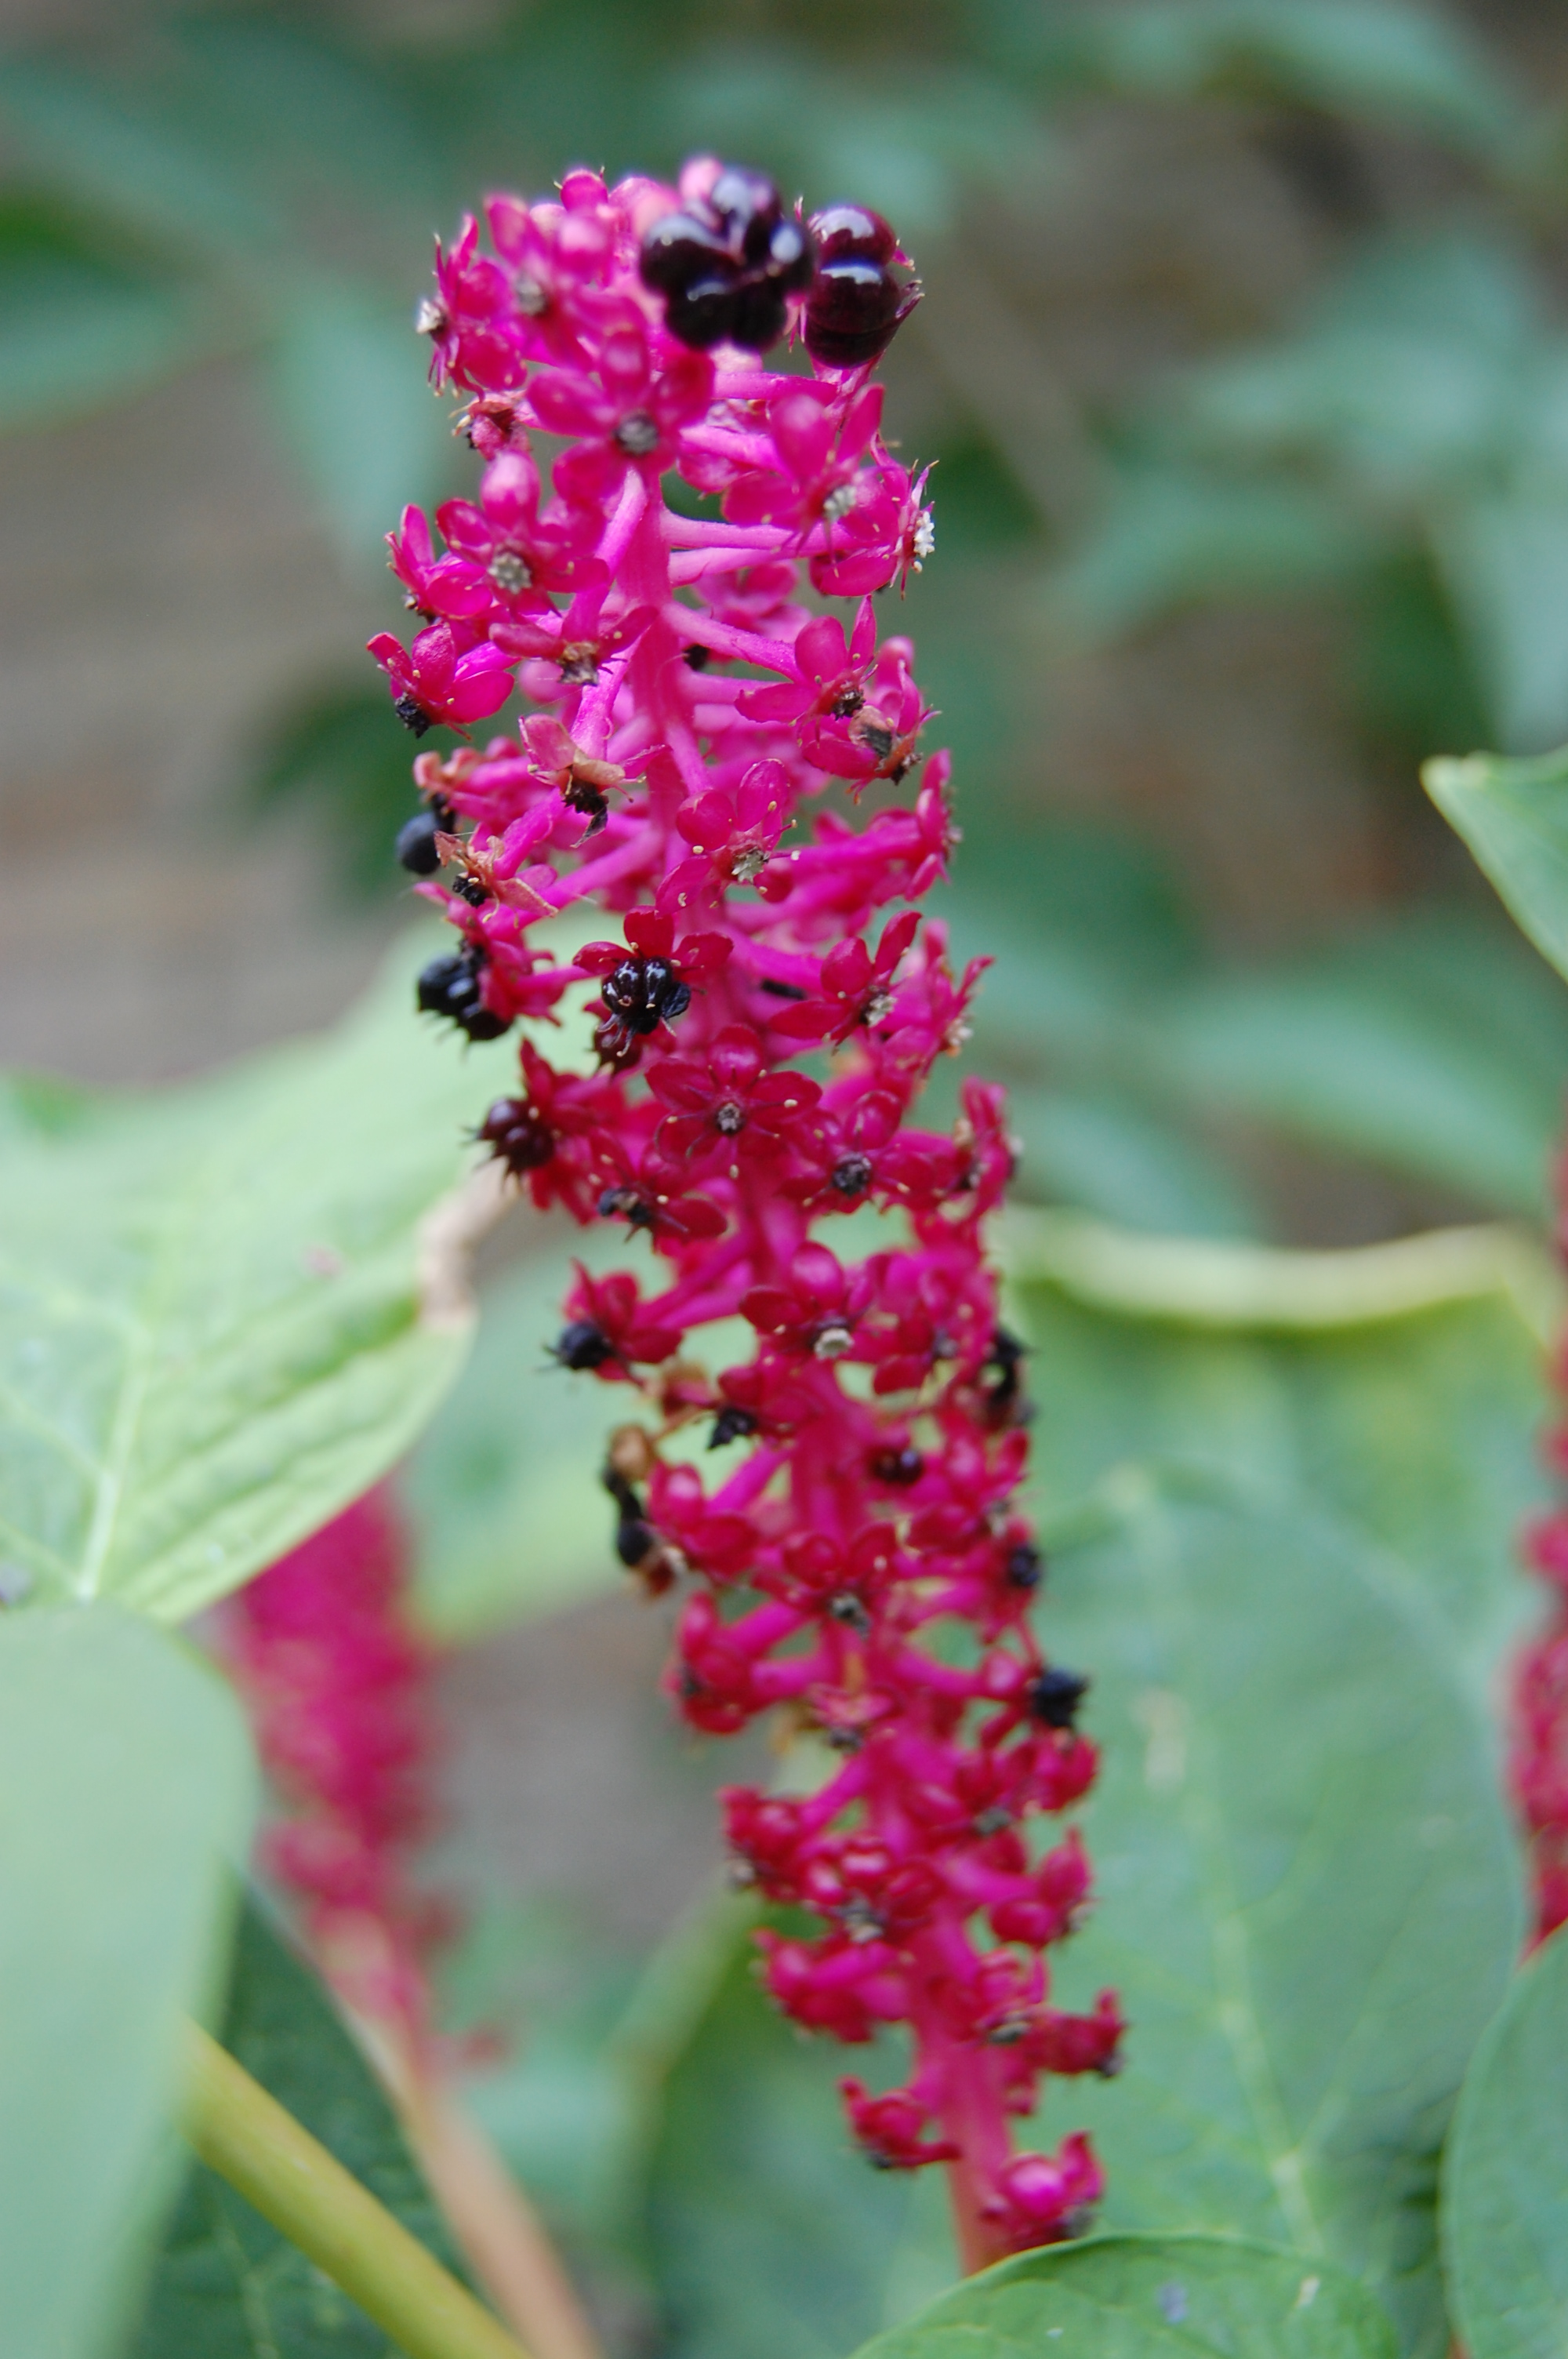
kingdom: Plantae
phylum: Tracheophyta
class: Magnoliopsida
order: Caryophyllales
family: Phytolaccaceae
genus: Phytolacca
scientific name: Phytolacca acinosa
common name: Indian pokeweed
